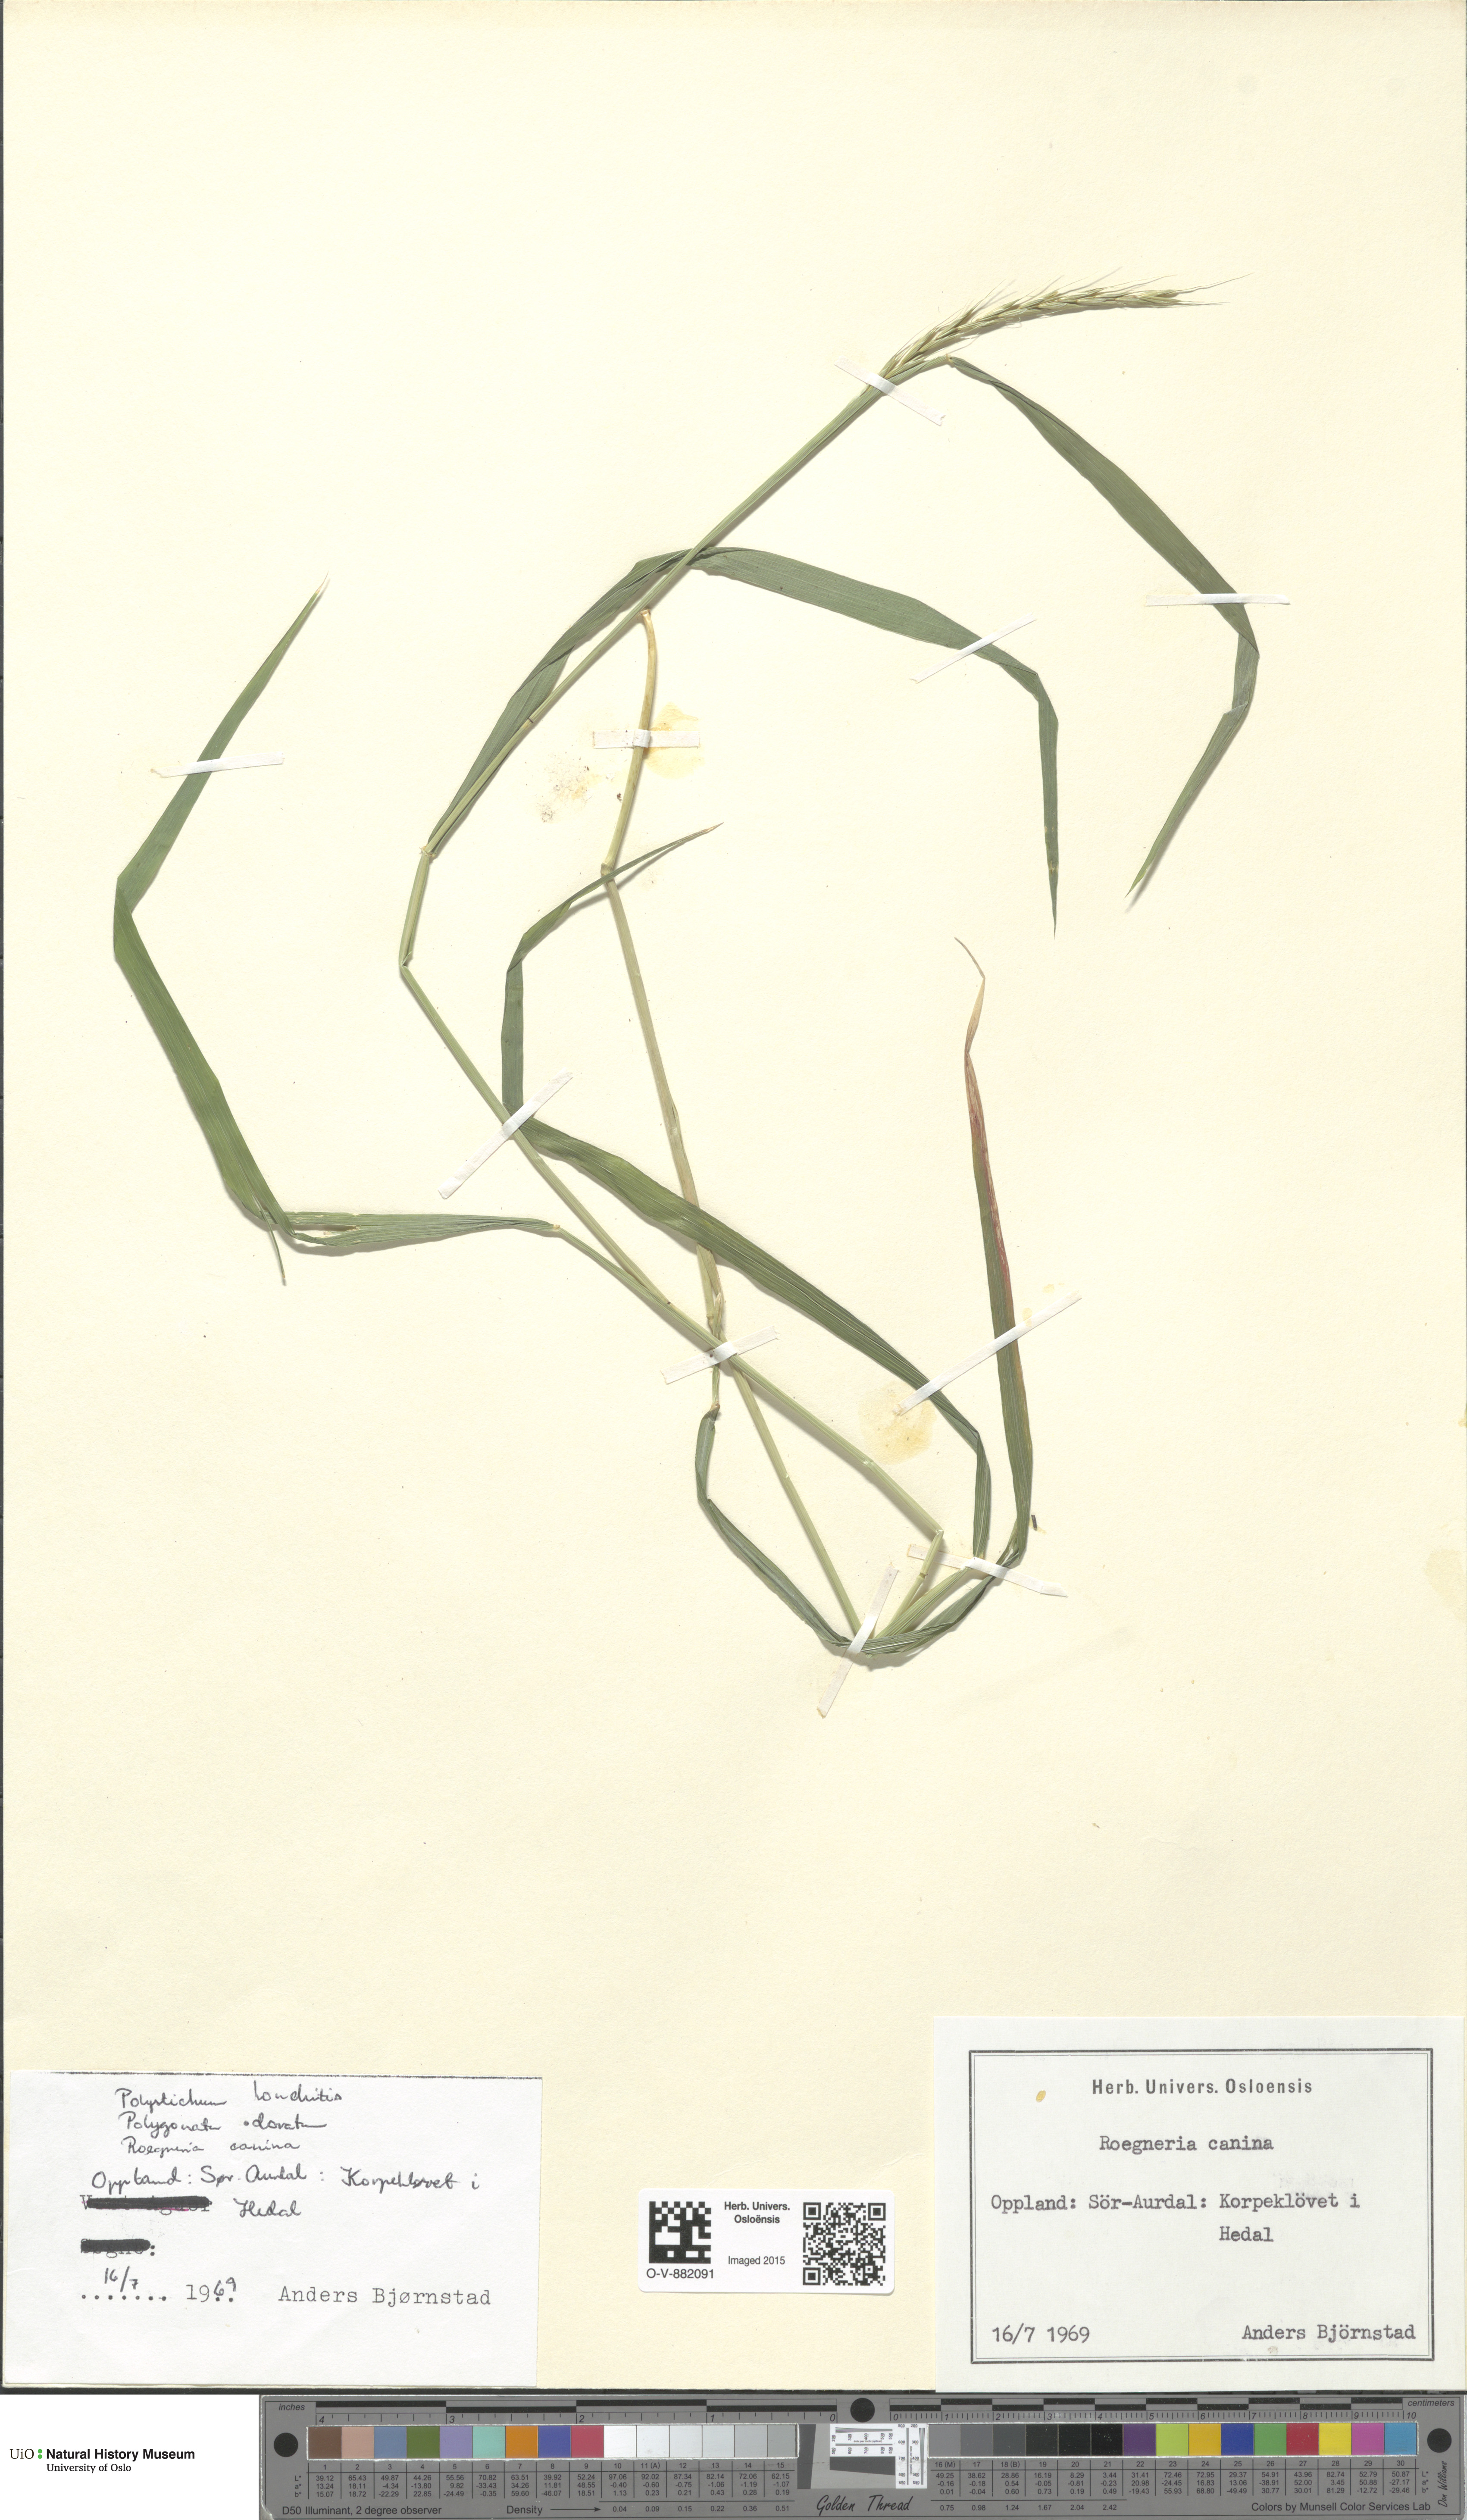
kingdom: Plantae
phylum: Tracheophyta
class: Liliopsida
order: Poales
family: Poaceae
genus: Elymus
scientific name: Elymus caninus
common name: Bearded couch
